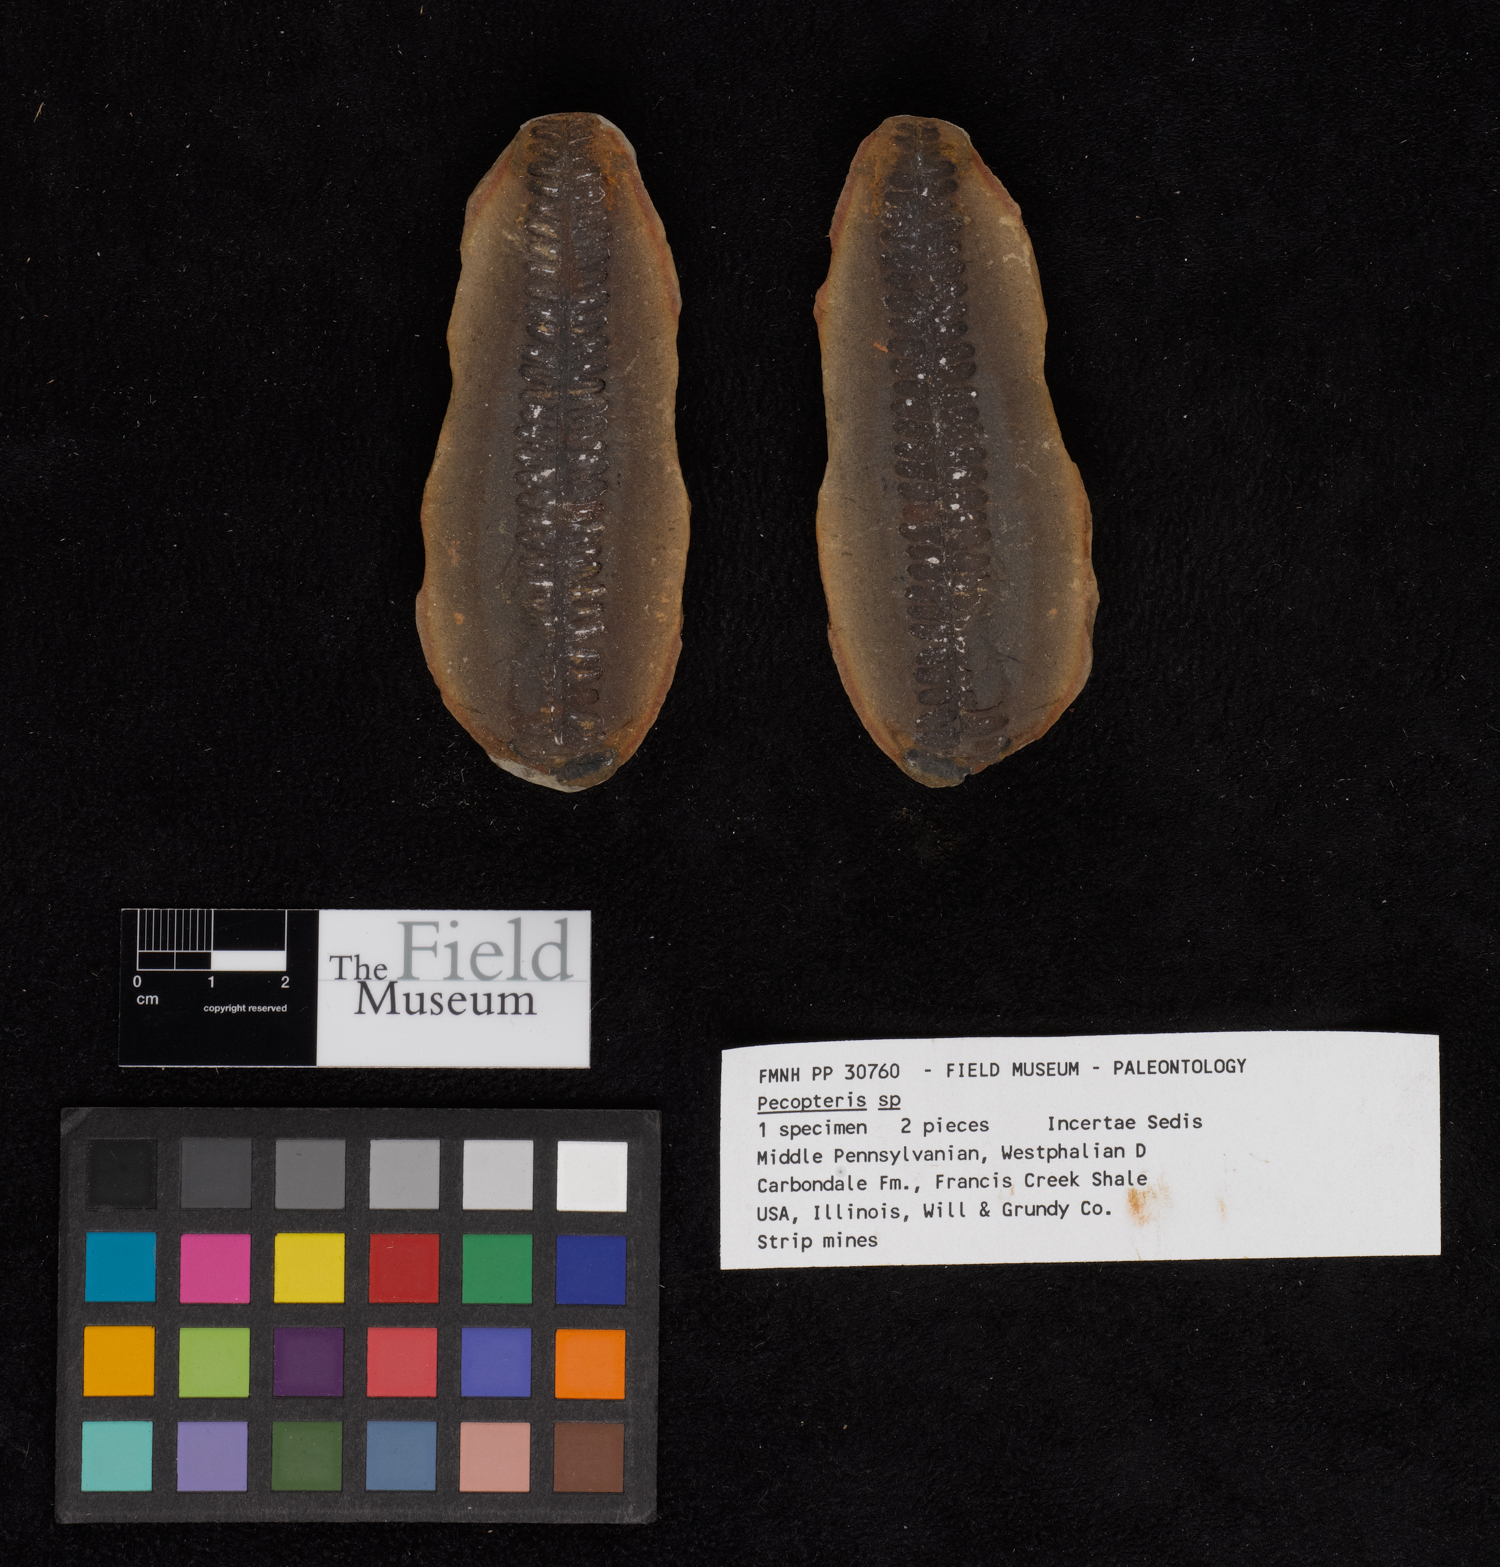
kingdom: Plantae
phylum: Tracheophyta
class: Polypodiopsida
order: Marattiales
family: Asterothecaceae
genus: Pecopteris
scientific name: Pecopteris
